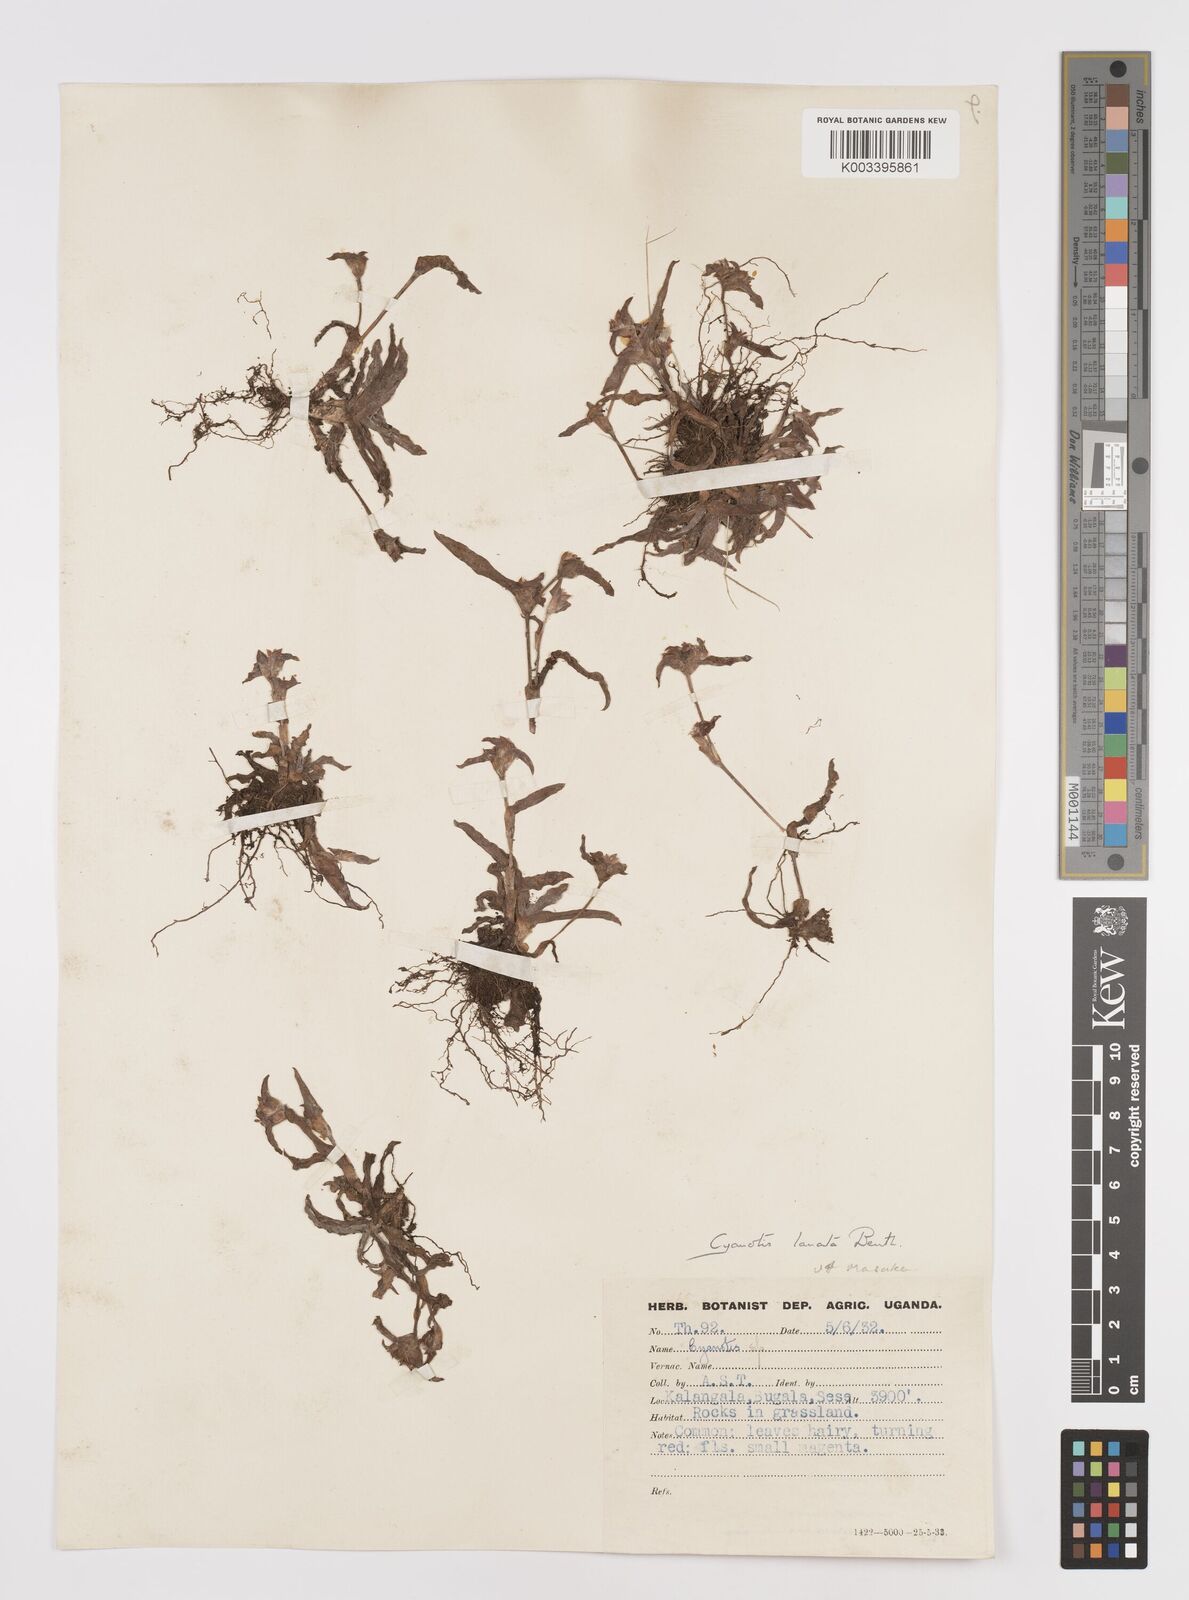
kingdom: Plantae
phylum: Tracheophyta
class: Liliopsida
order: Commelinales
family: Commelinaceae
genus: Cyanotis
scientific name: Cyanotis lanata
